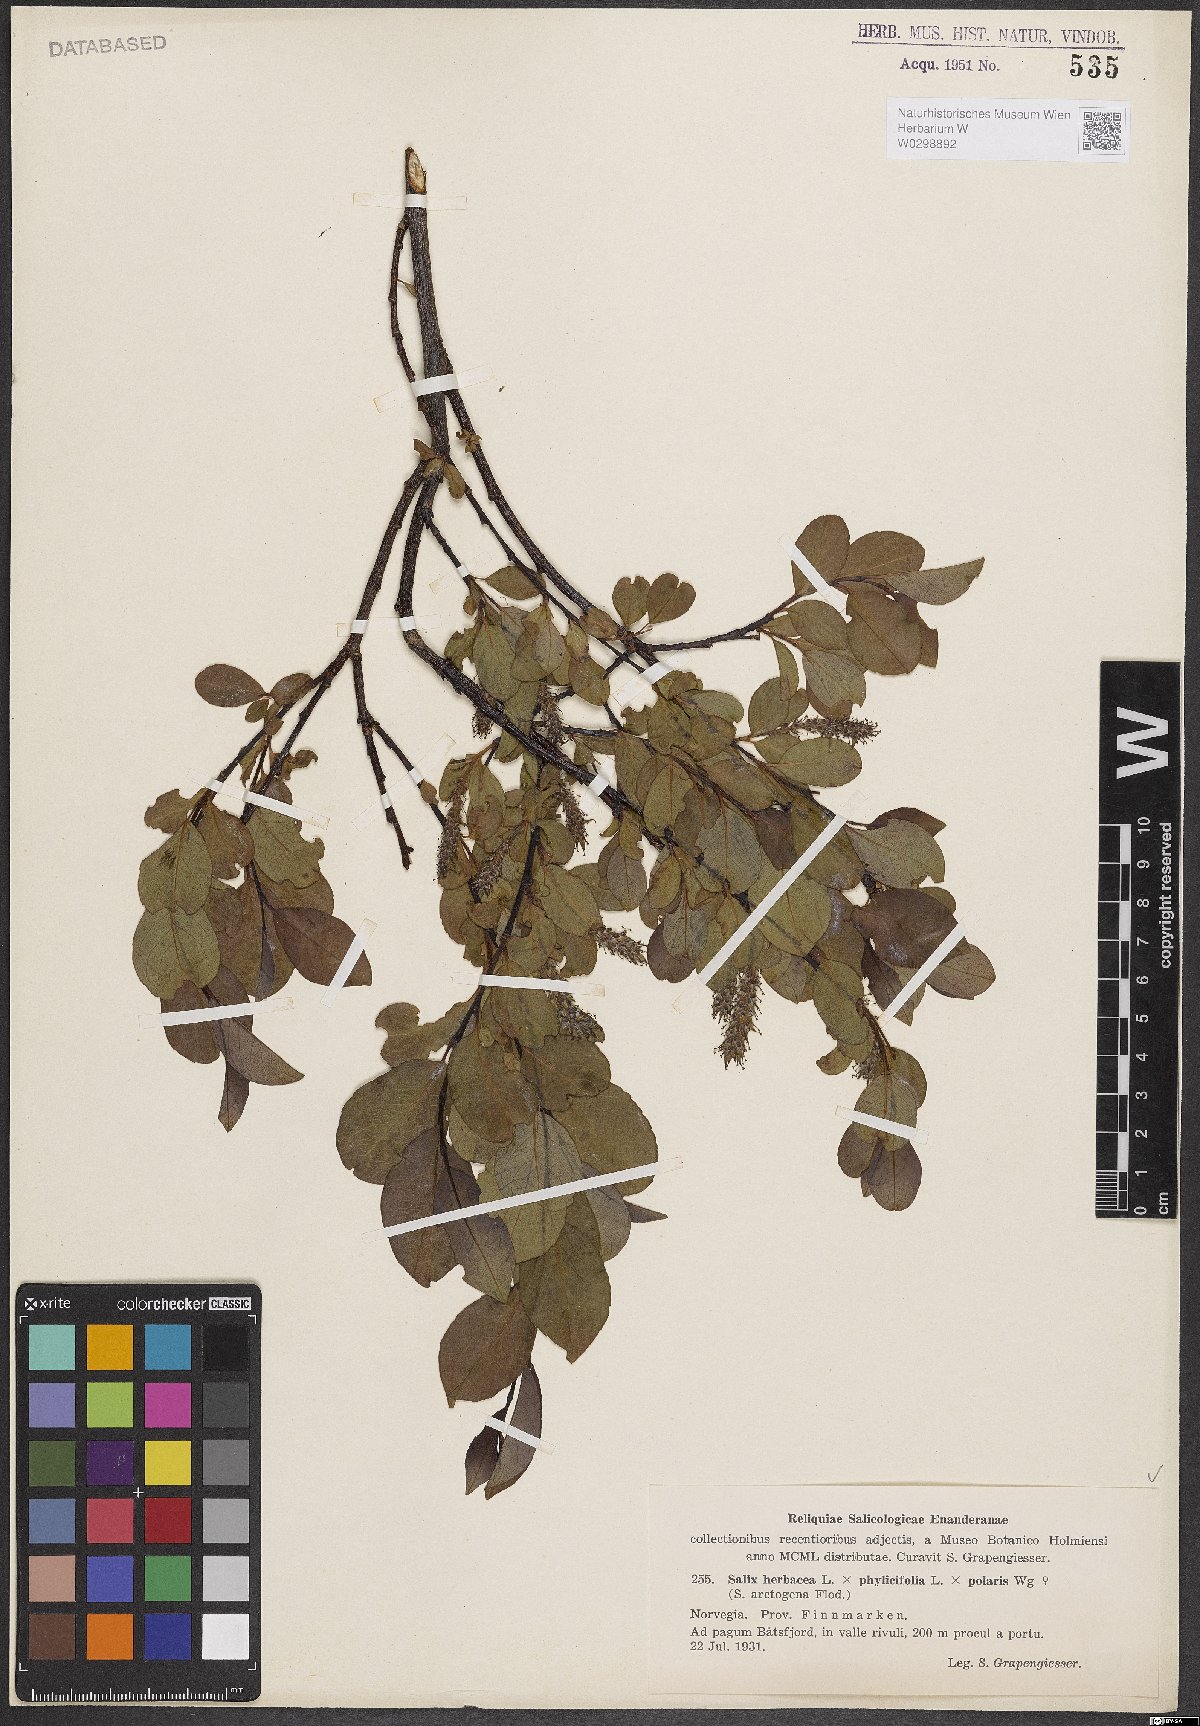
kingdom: Plantae
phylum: Tracheophyta
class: Magnoliopsida
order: Malpighiales
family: Salicaceae
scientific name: Salicaceae
